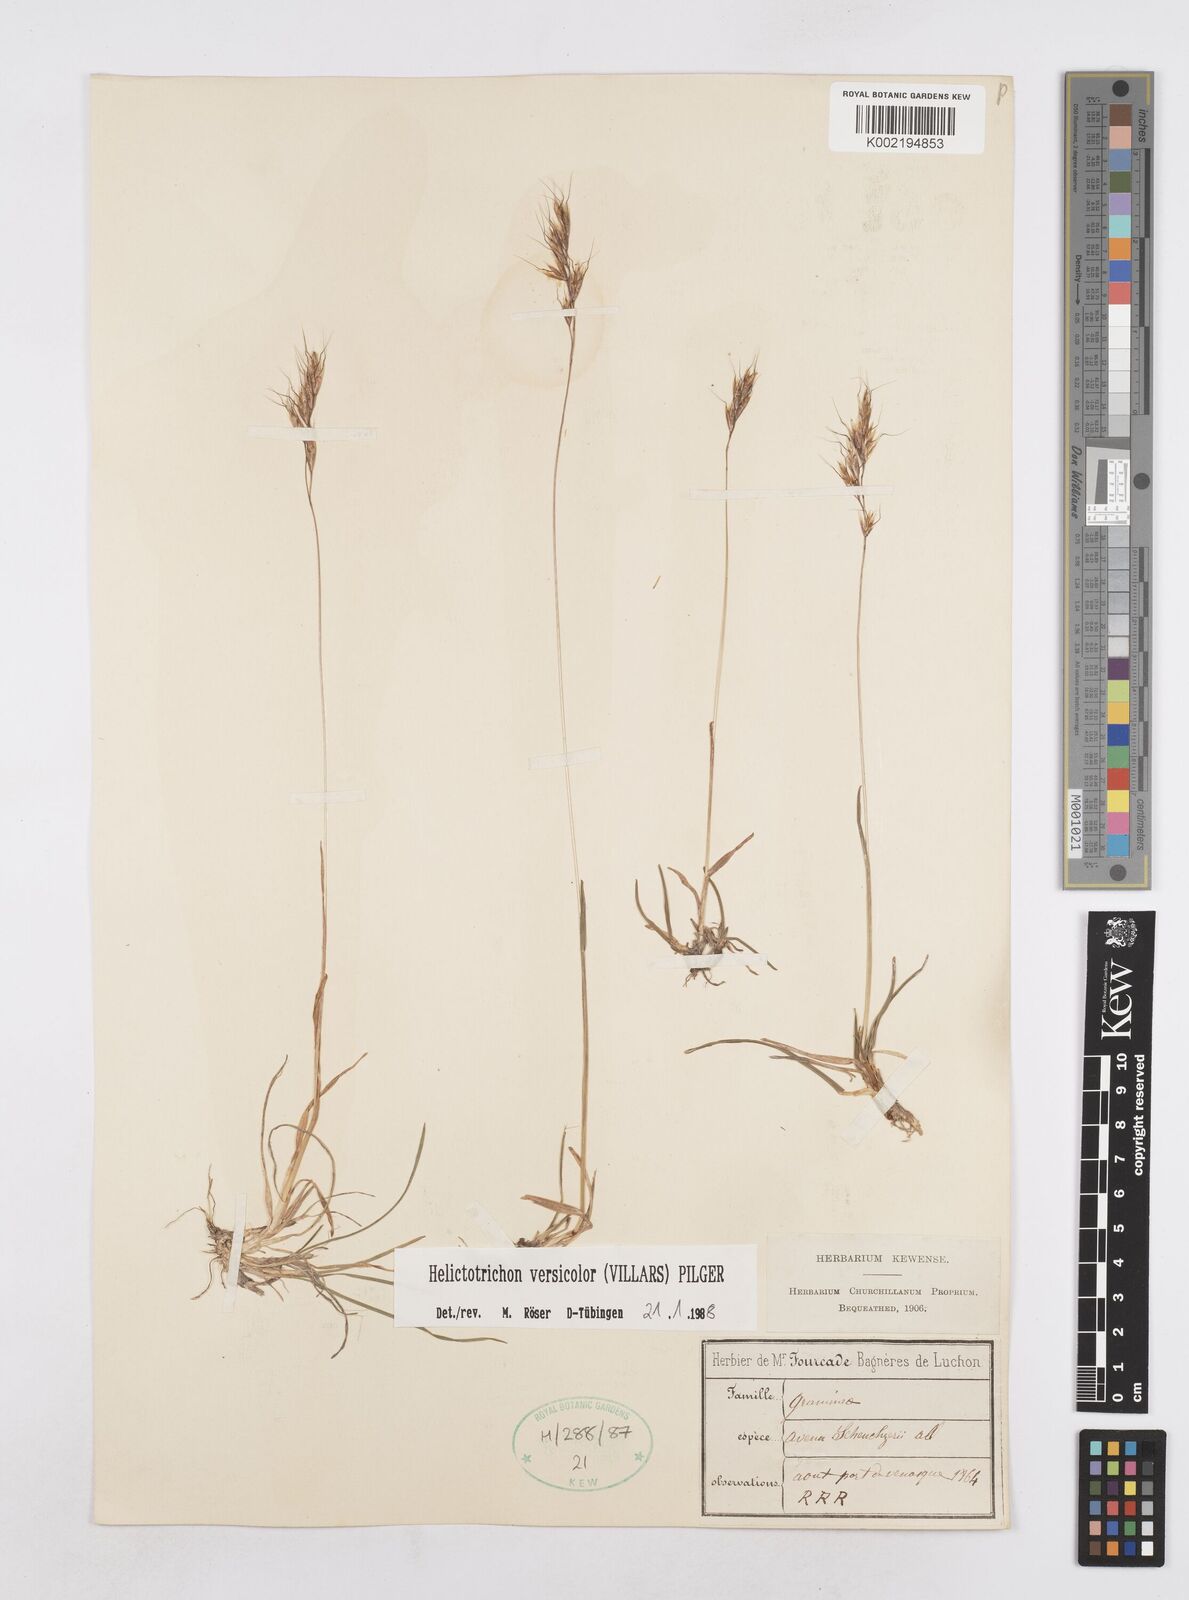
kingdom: Plantae
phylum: Tracheophyta
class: Liliopsida
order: Poales
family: Poaceae
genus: Helictochloa
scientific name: Helictochloa versicolor
